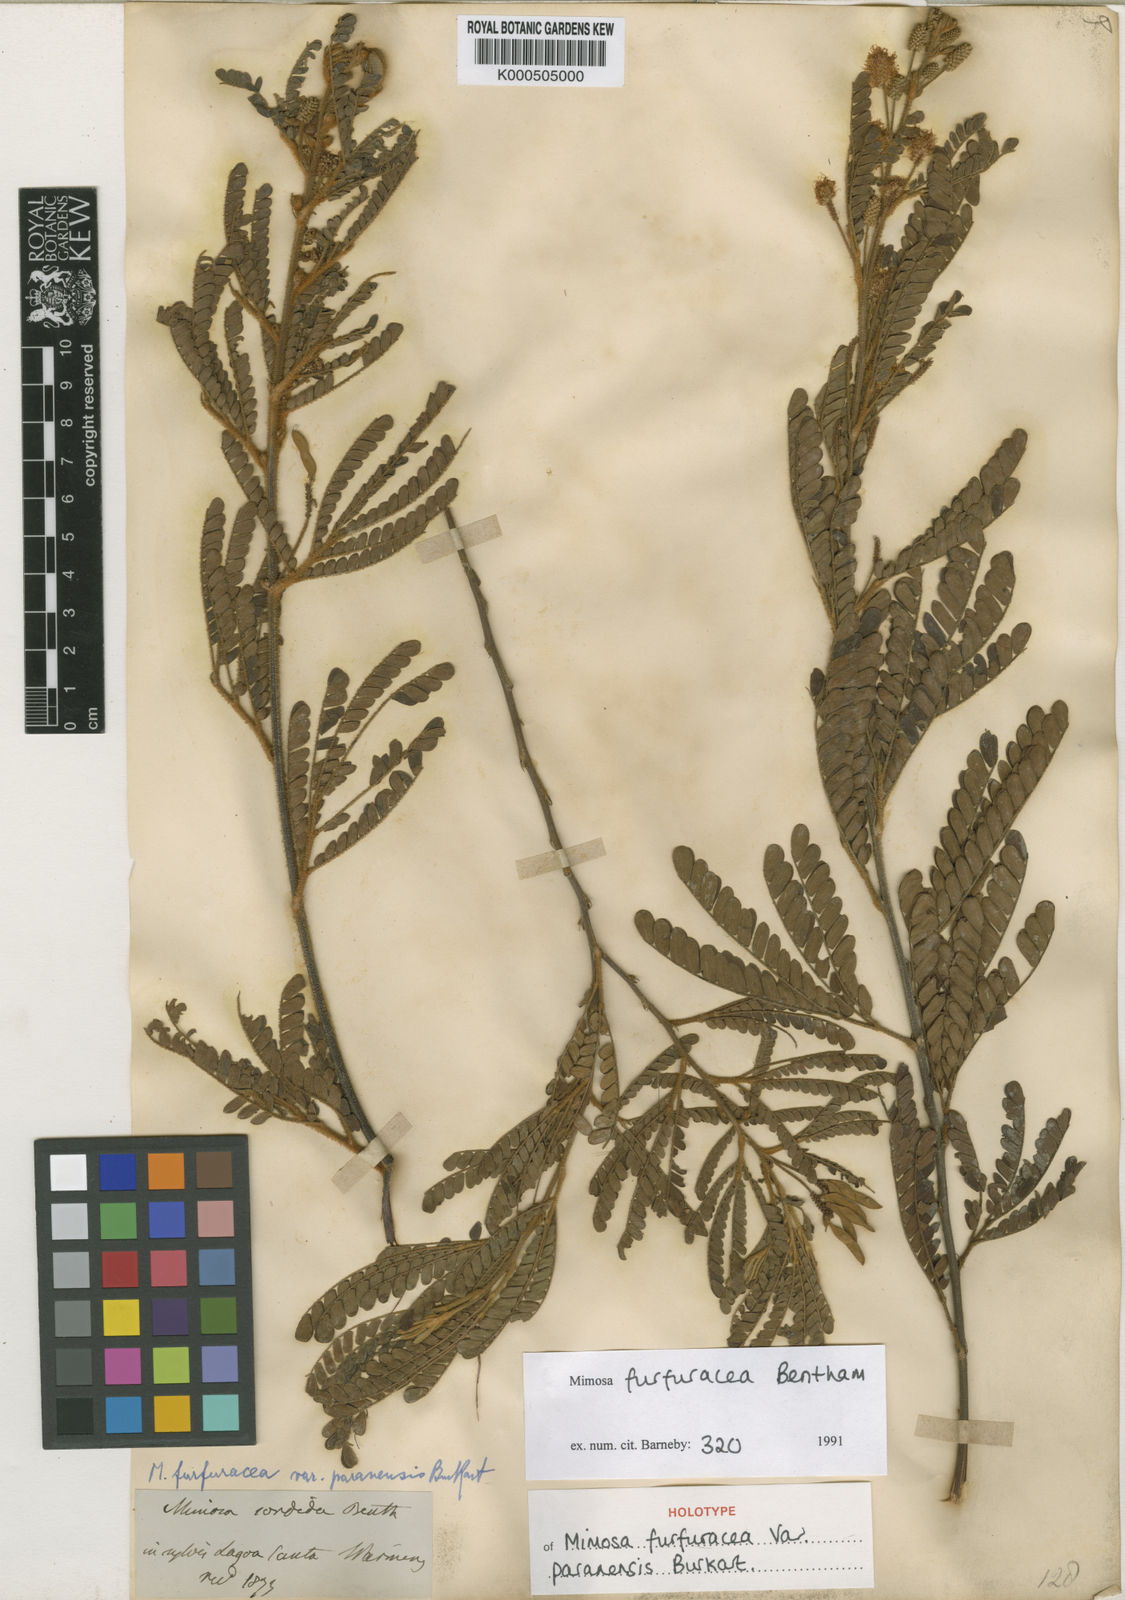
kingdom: Plantae
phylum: Tracheophyta
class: Magnoliopsida
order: Fabales
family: Fabaceae
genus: Mimosa
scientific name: Mimosa furfuracea
